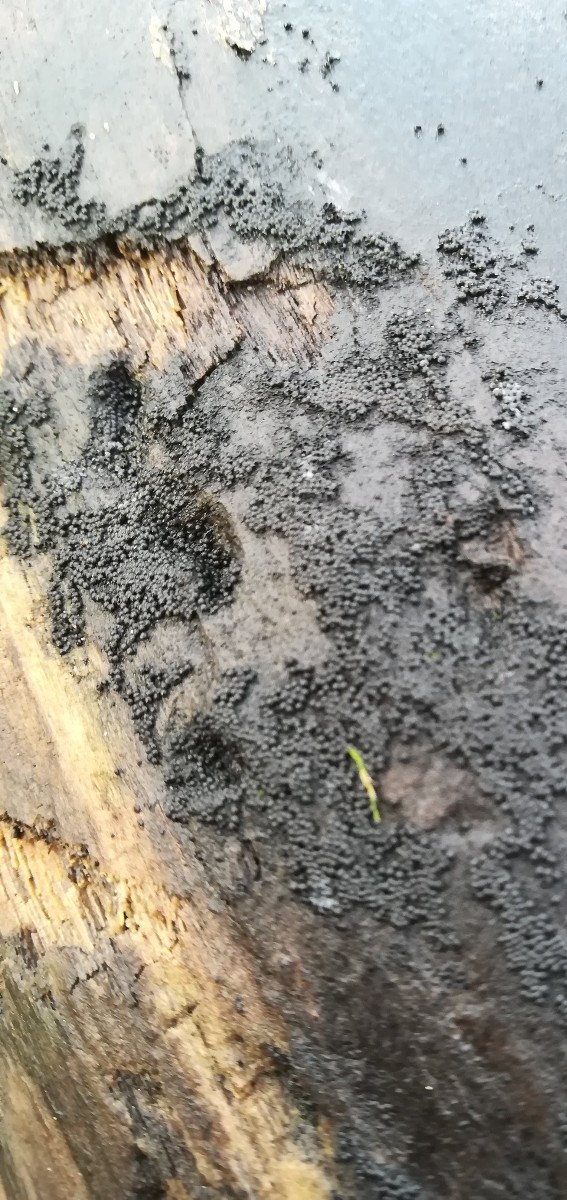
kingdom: Fungi
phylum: Ascomycota
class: Sordariomycetes
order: Coronophorales
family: Nitschkiaceae
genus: Nitschkia
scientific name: Nitschkia
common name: skålkerne
